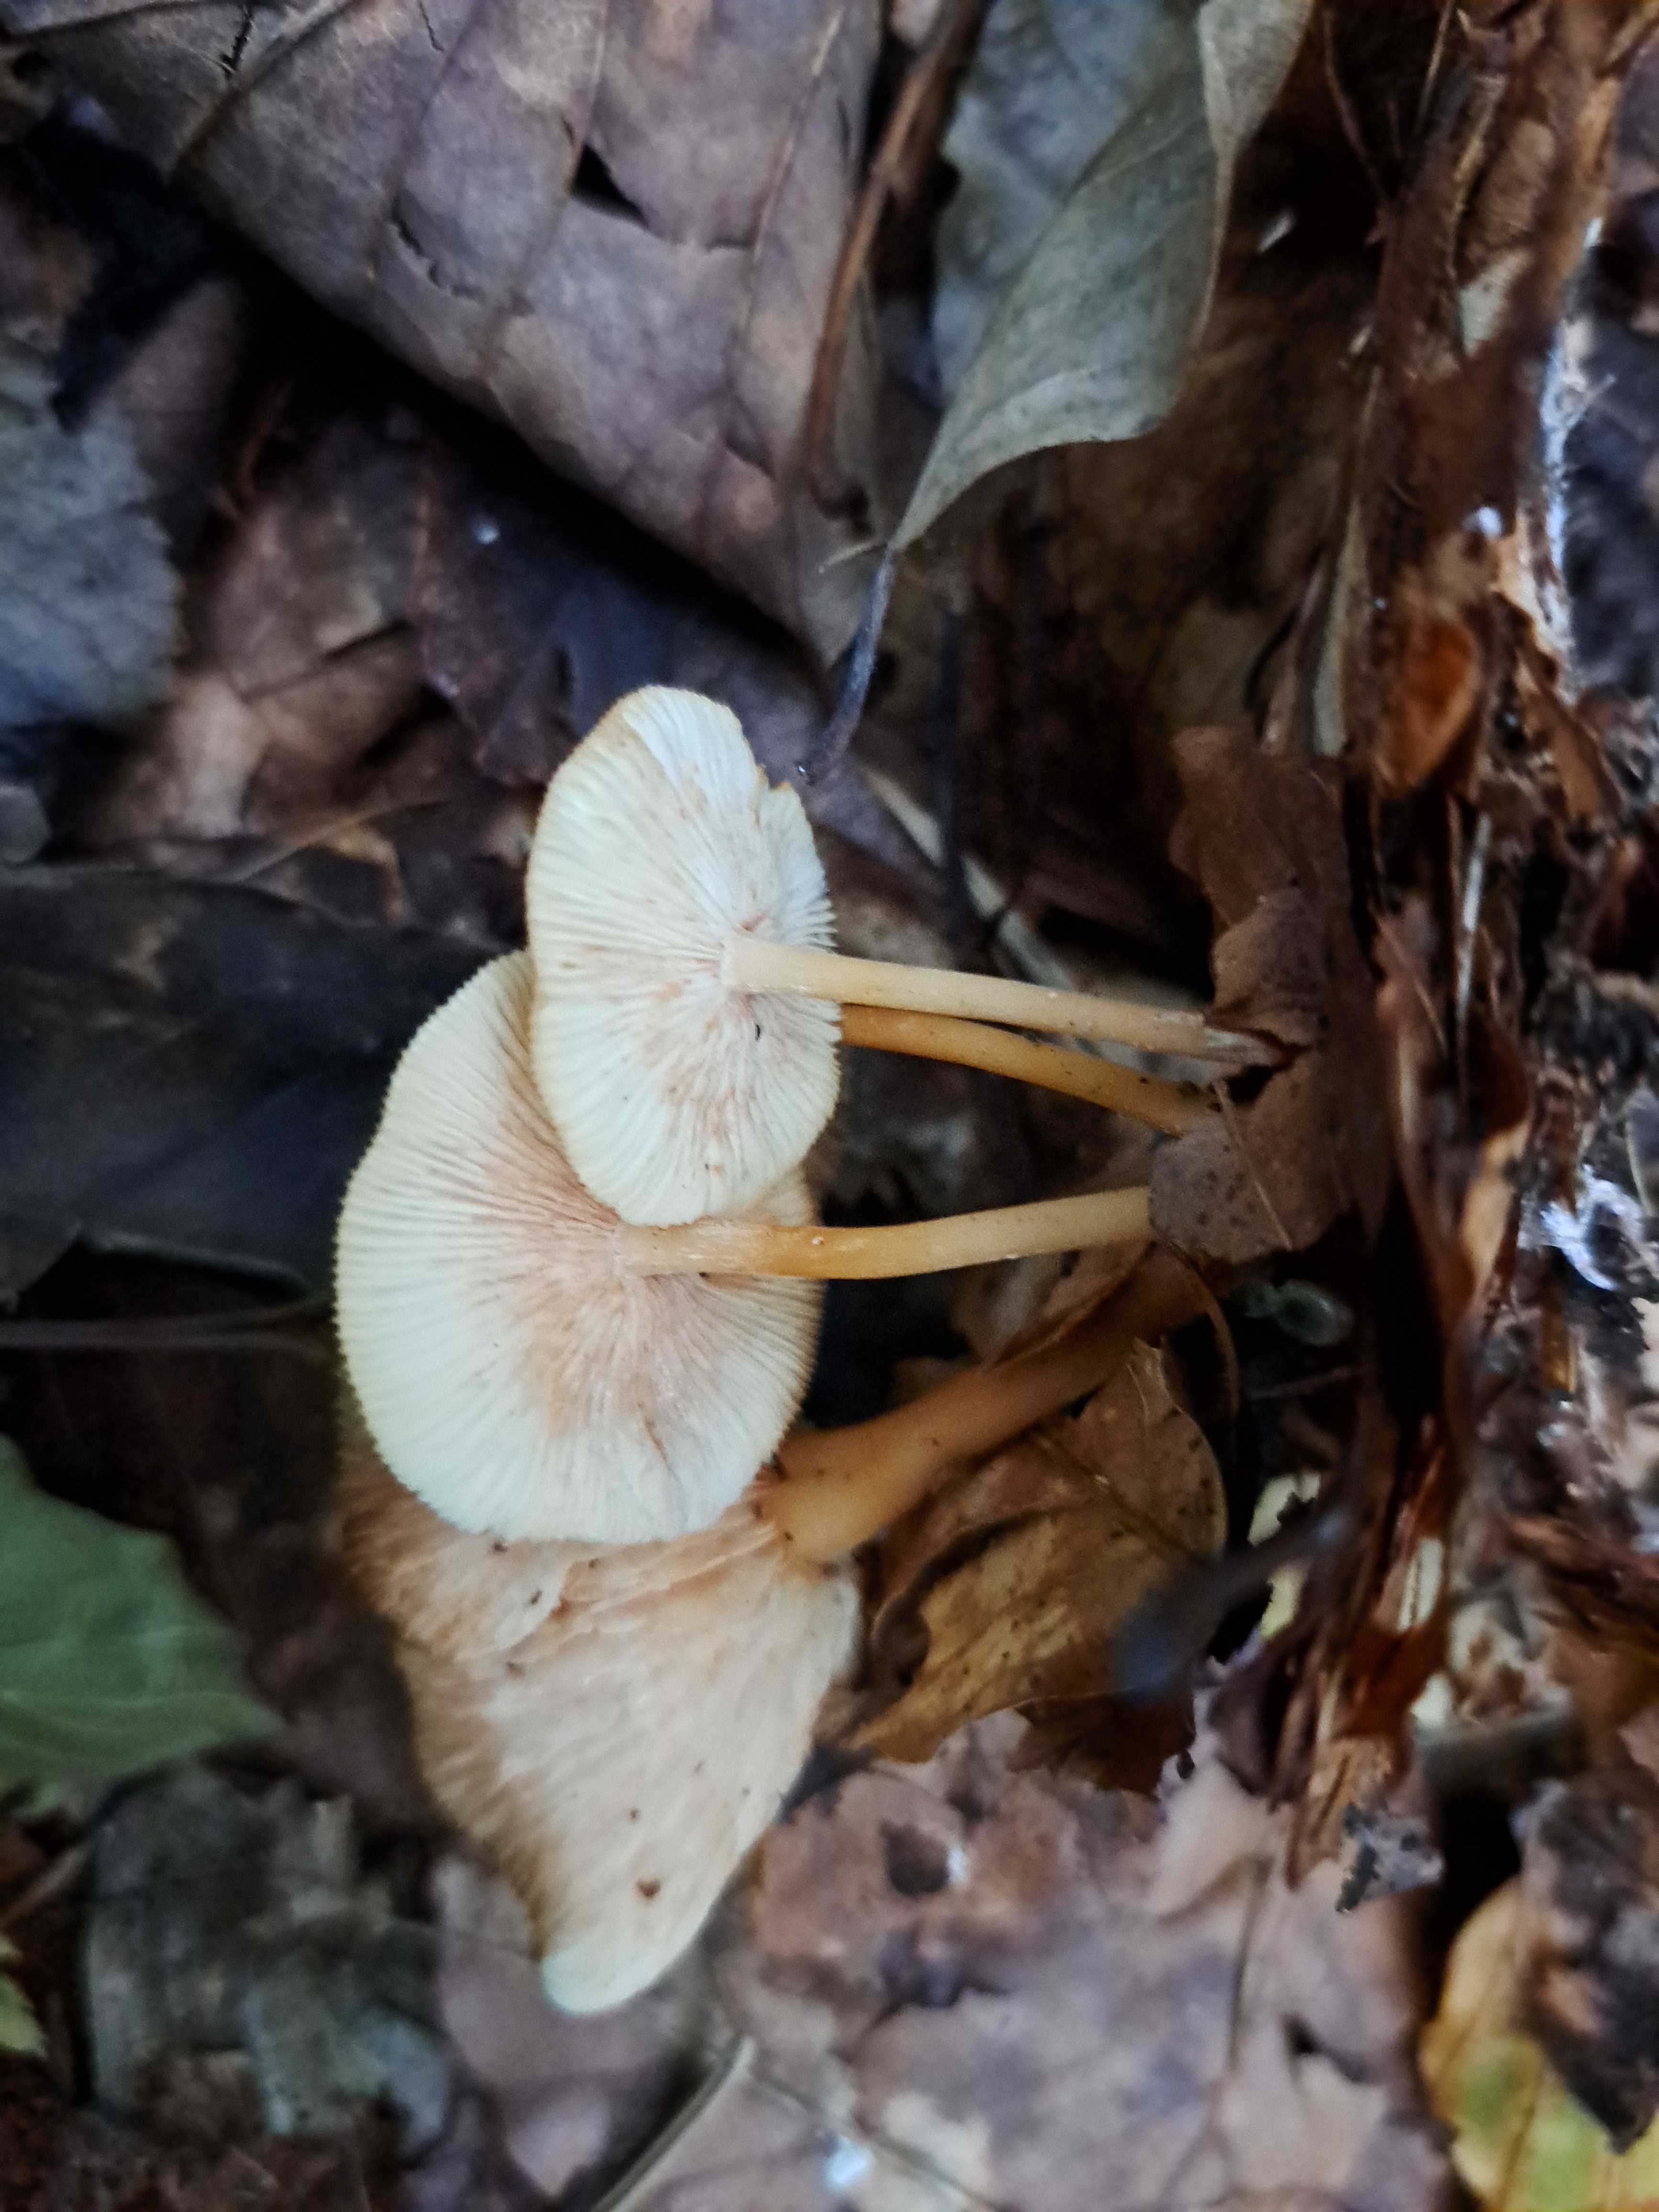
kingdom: Fungi
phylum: Basidiomycota
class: Agaricomycetes
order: Agaricales
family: Omphalotaceae
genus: Gymnopus
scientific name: Gymnopus dryophilus
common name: løv-fladhat
